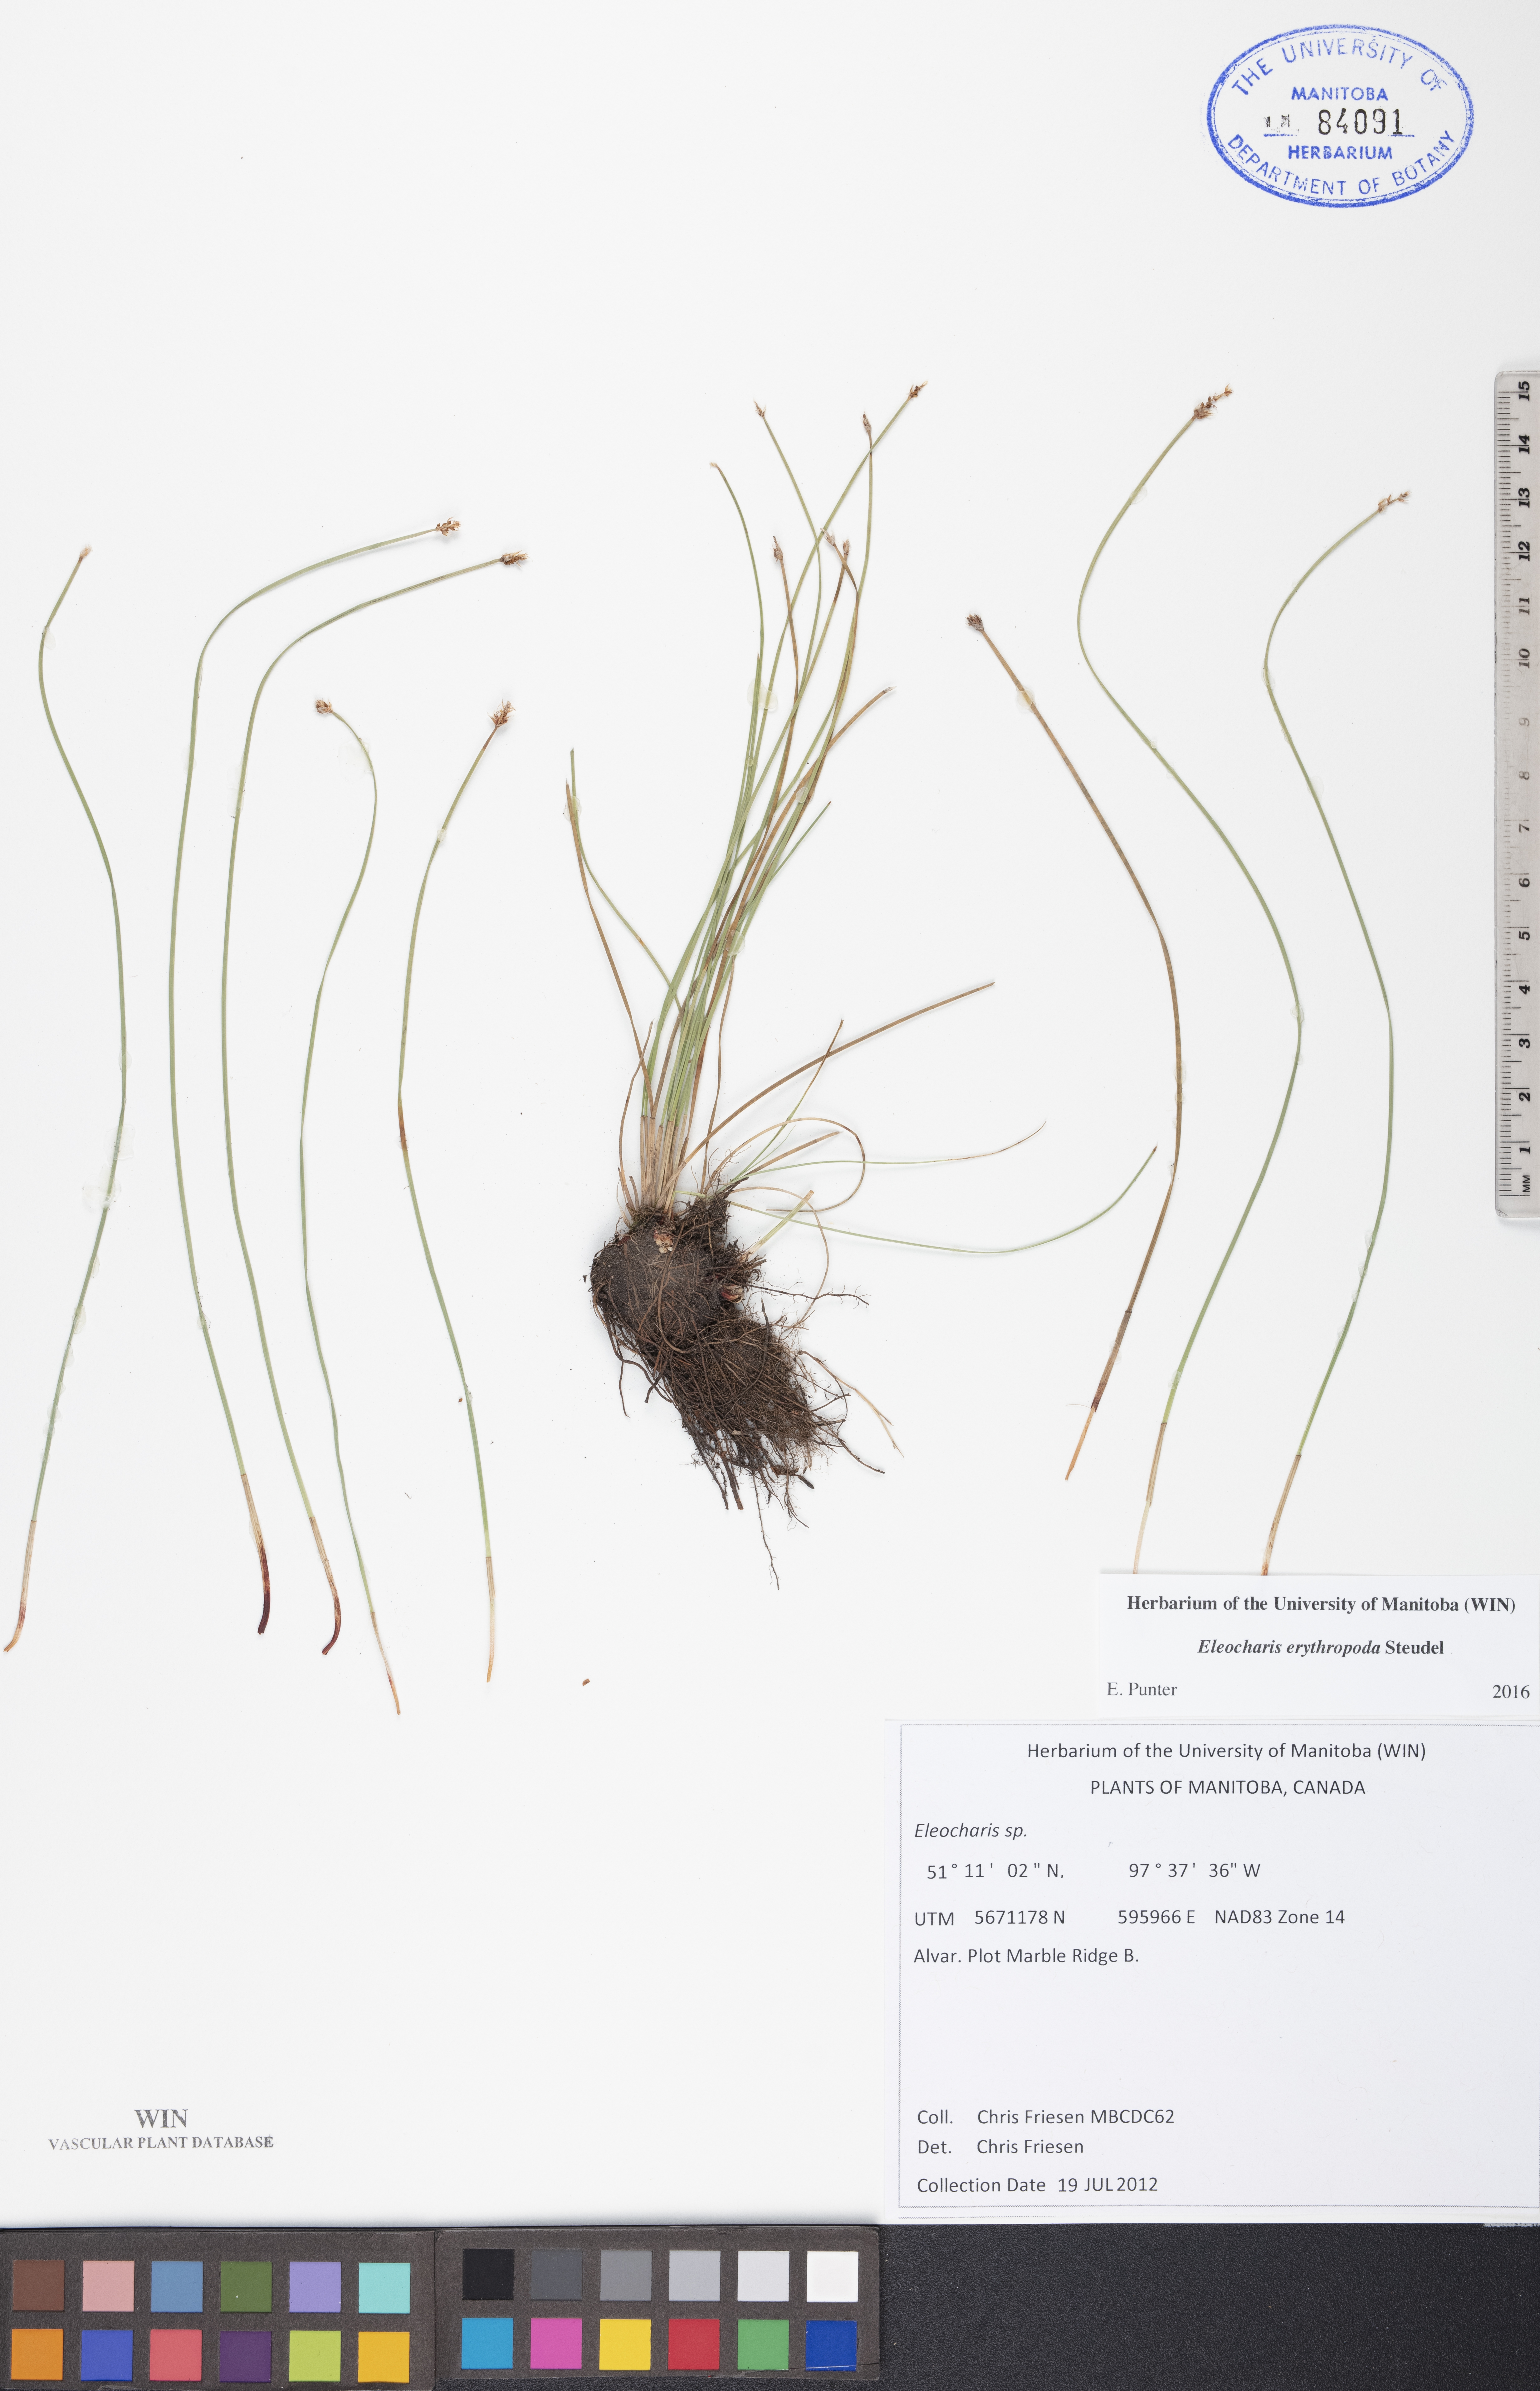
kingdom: Plantae
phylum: Tracheophyta
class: Liliopsida
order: Poales
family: Cyperaceae
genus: Eleocharis
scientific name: Eleocharis erythropoda
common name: Bald spikerush
